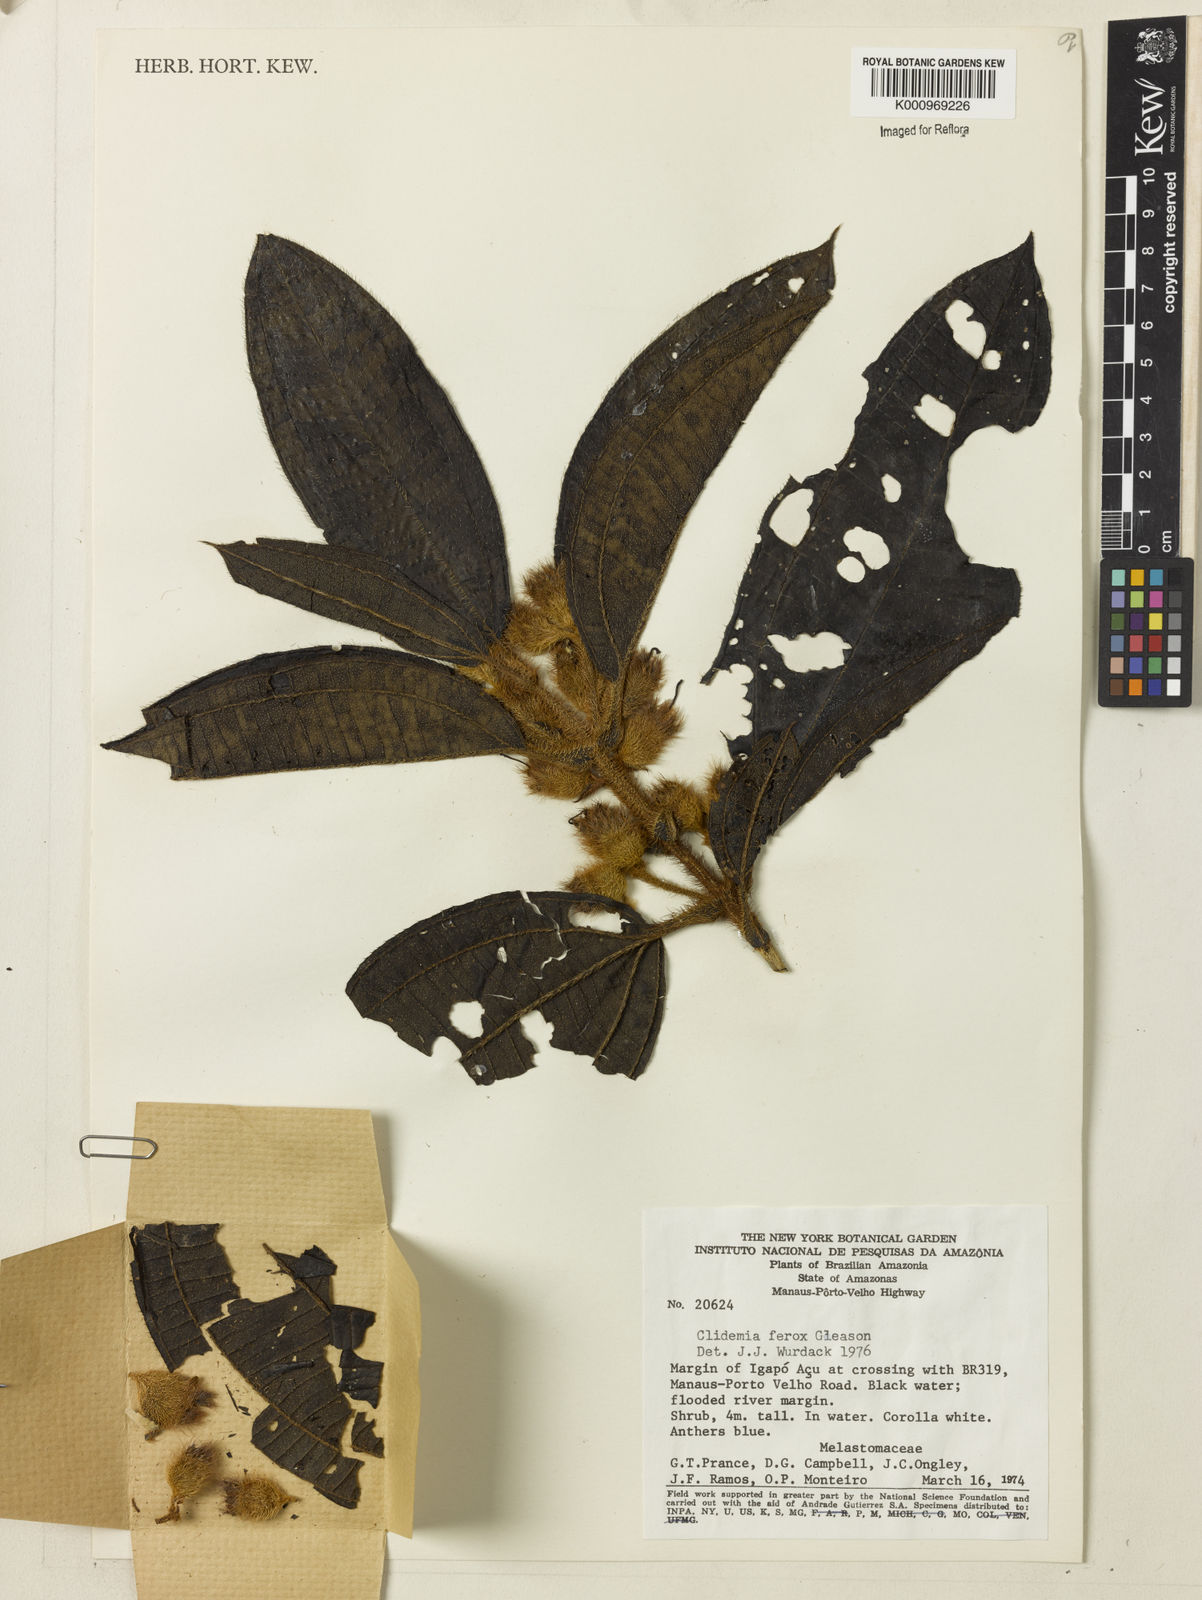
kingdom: Plantae
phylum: Tracheophyta
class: Magnoliopsida
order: Myrtales
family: Melastomataceae
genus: Miconia
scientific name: Miconia Clidemia ferox
